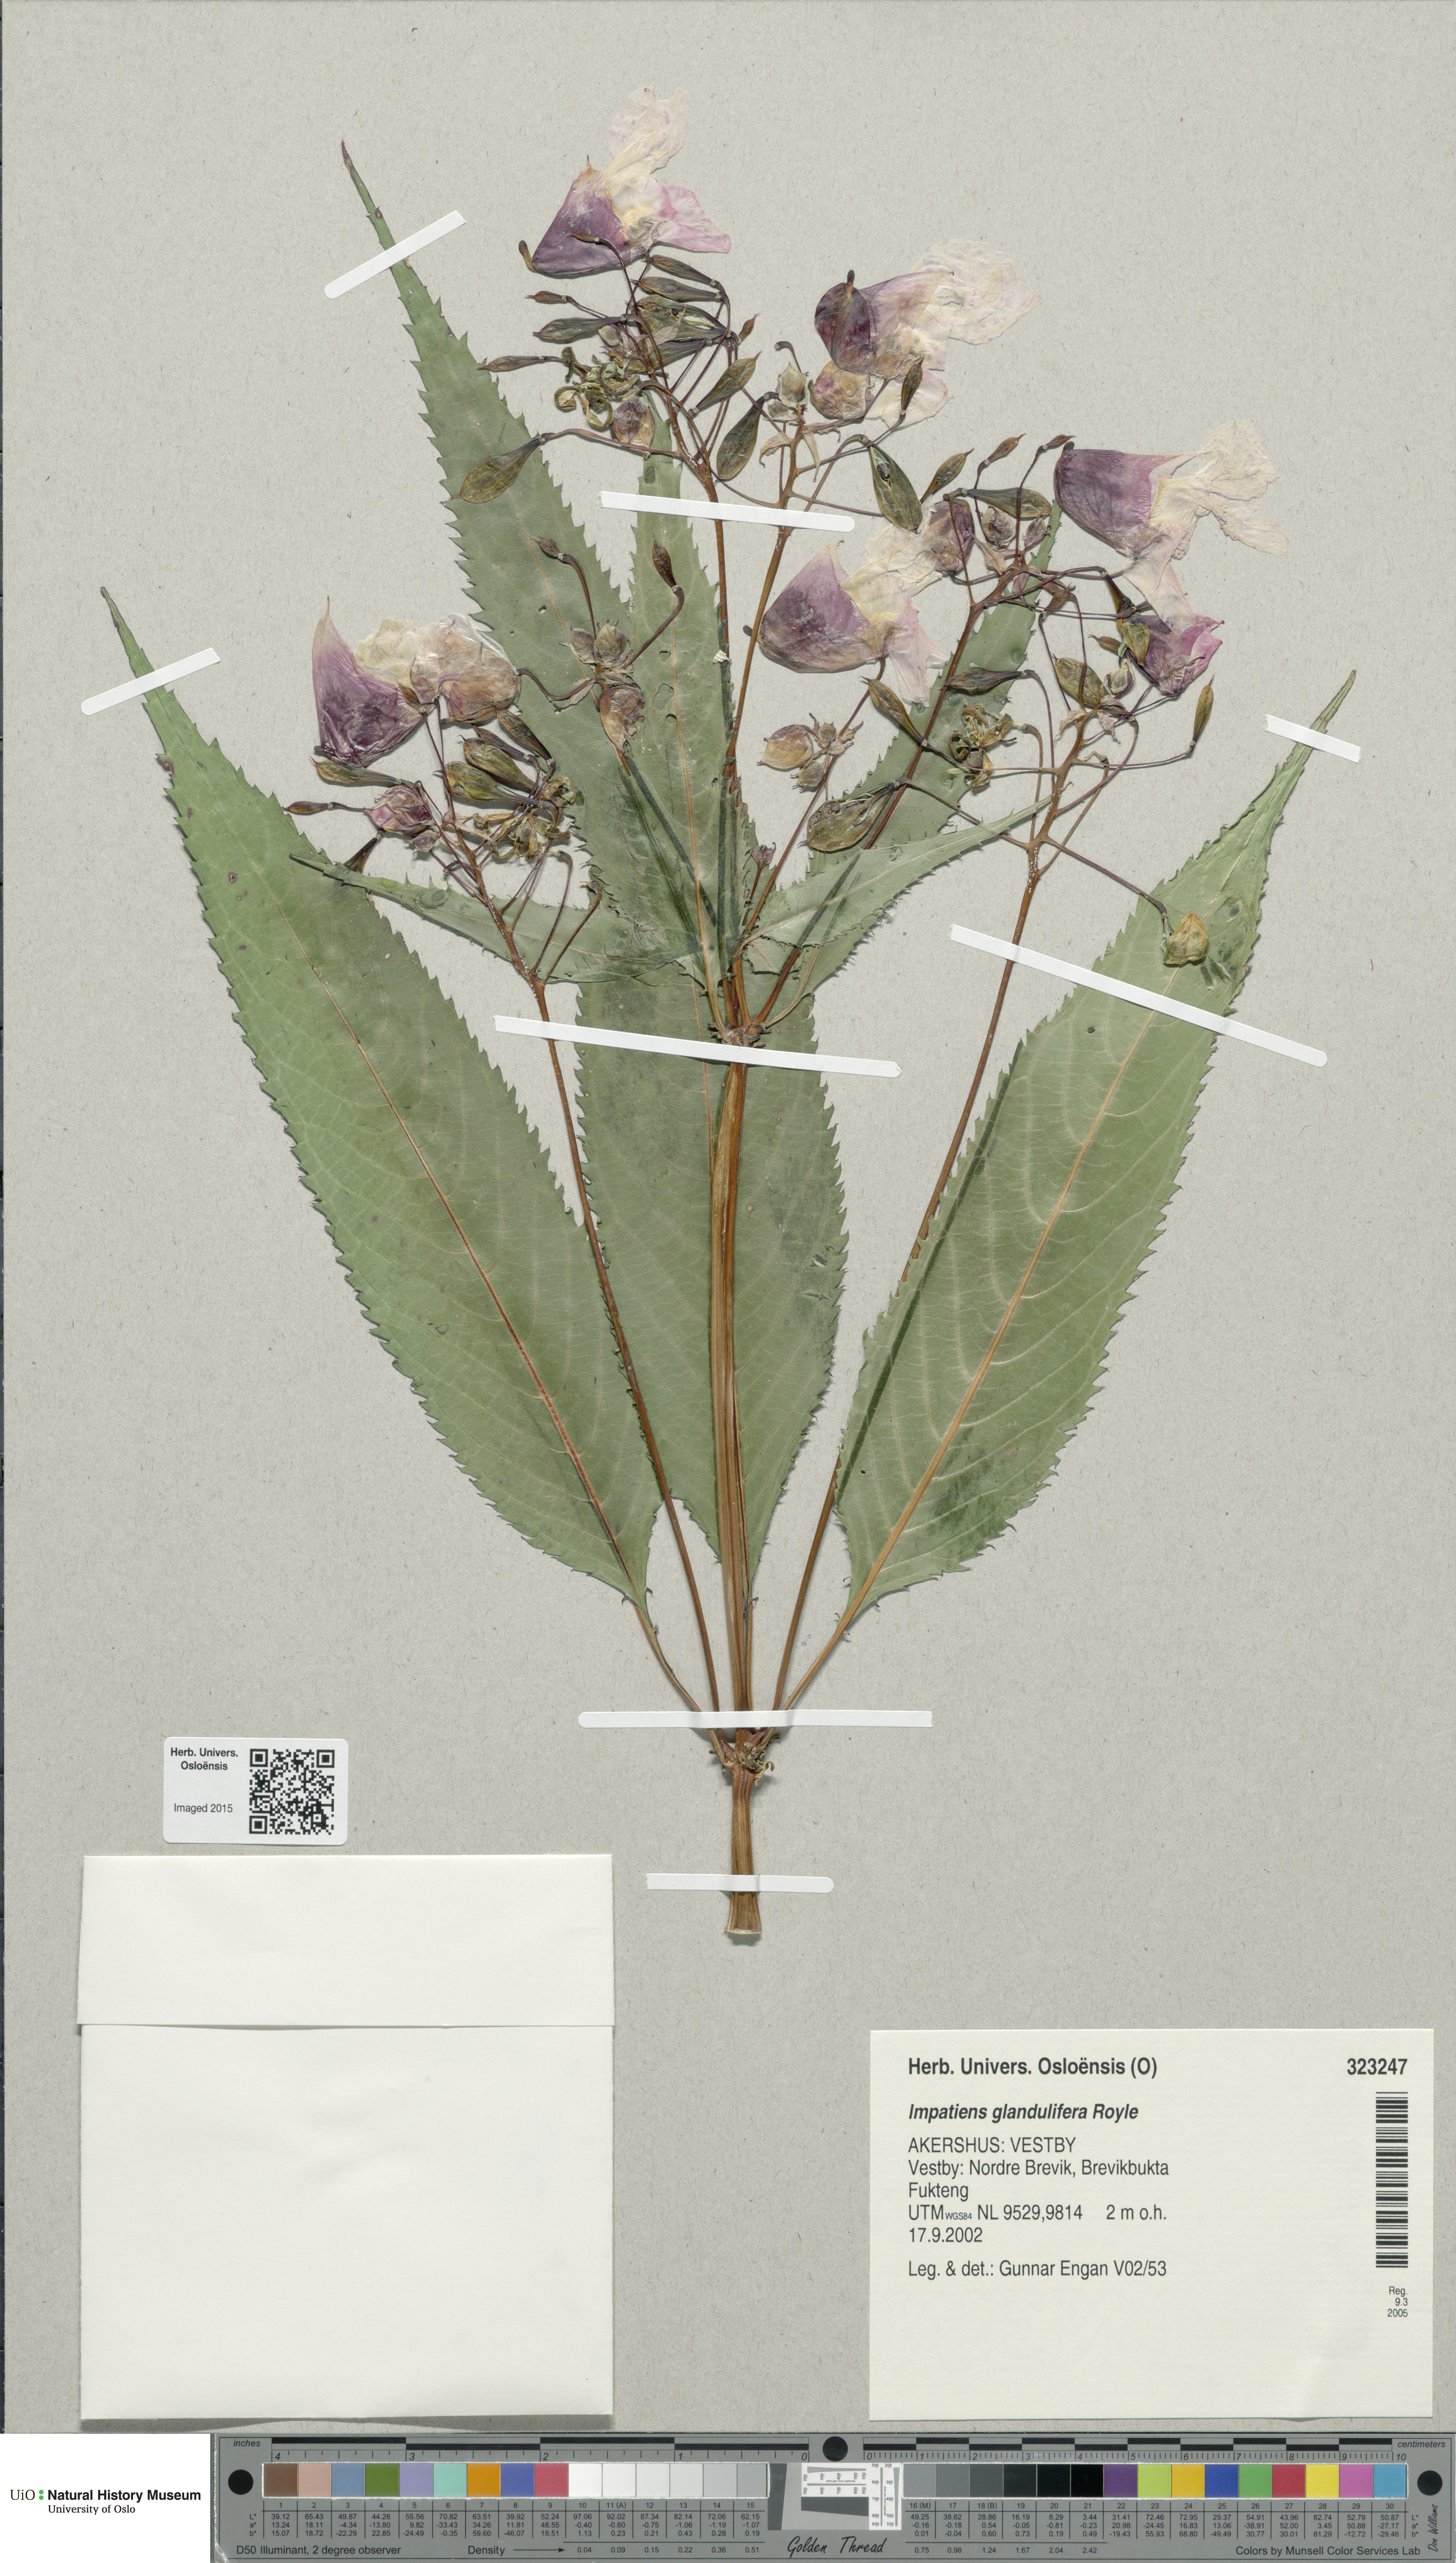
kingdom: Plantae
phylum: Tracheophyta
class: Magnoliopsida
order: Ericales
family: Balsaminaceae
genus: Impatiens
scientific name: Impatiens glandulifera
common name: Himalayan balsam
